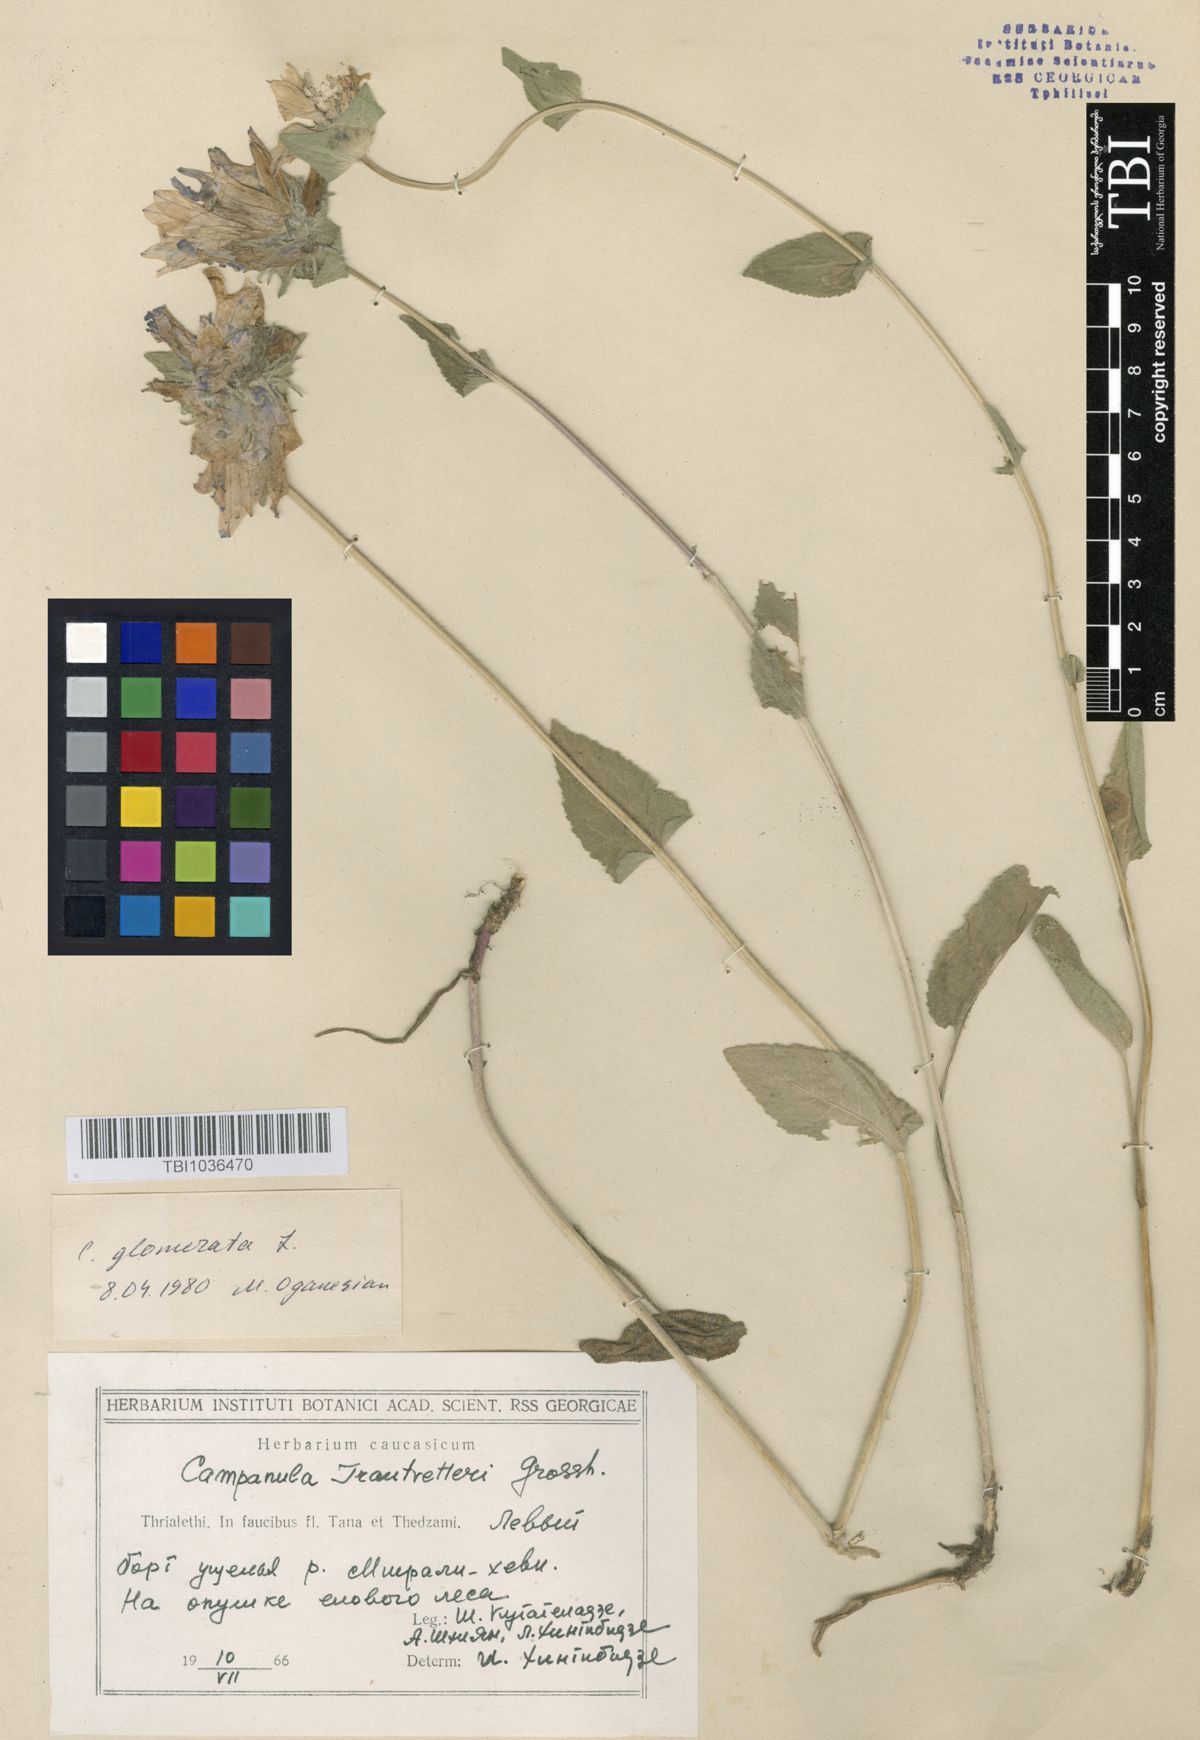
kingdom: Plantae
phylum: Tracheophyta
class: Magnoliopsida
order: Asterales
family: Campanulaceae
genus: Campanula
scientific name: Campanula glomerata
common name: Clustered bellflower
